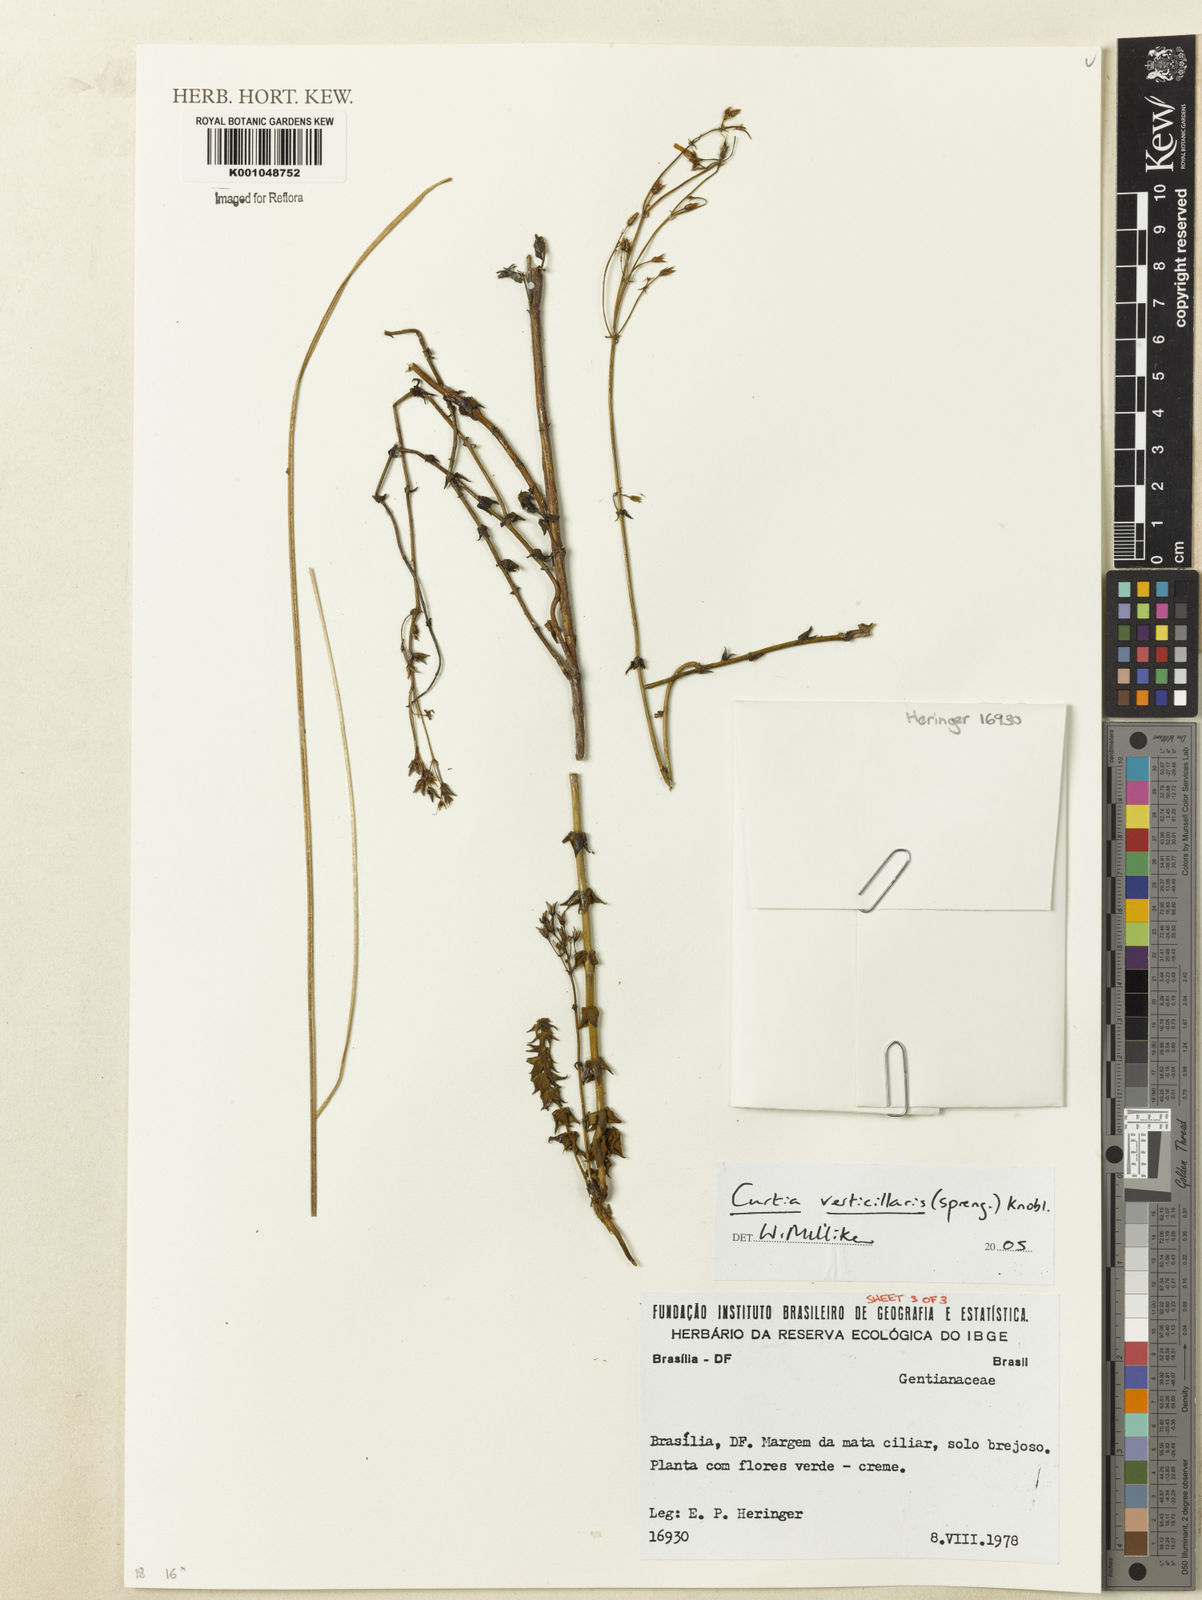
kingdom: Plantae
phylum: Tracheophyta
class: Magnoliopsida
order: Gentianales
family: Gentianaceae
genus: Curtia
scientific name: Curtia verticillaris
